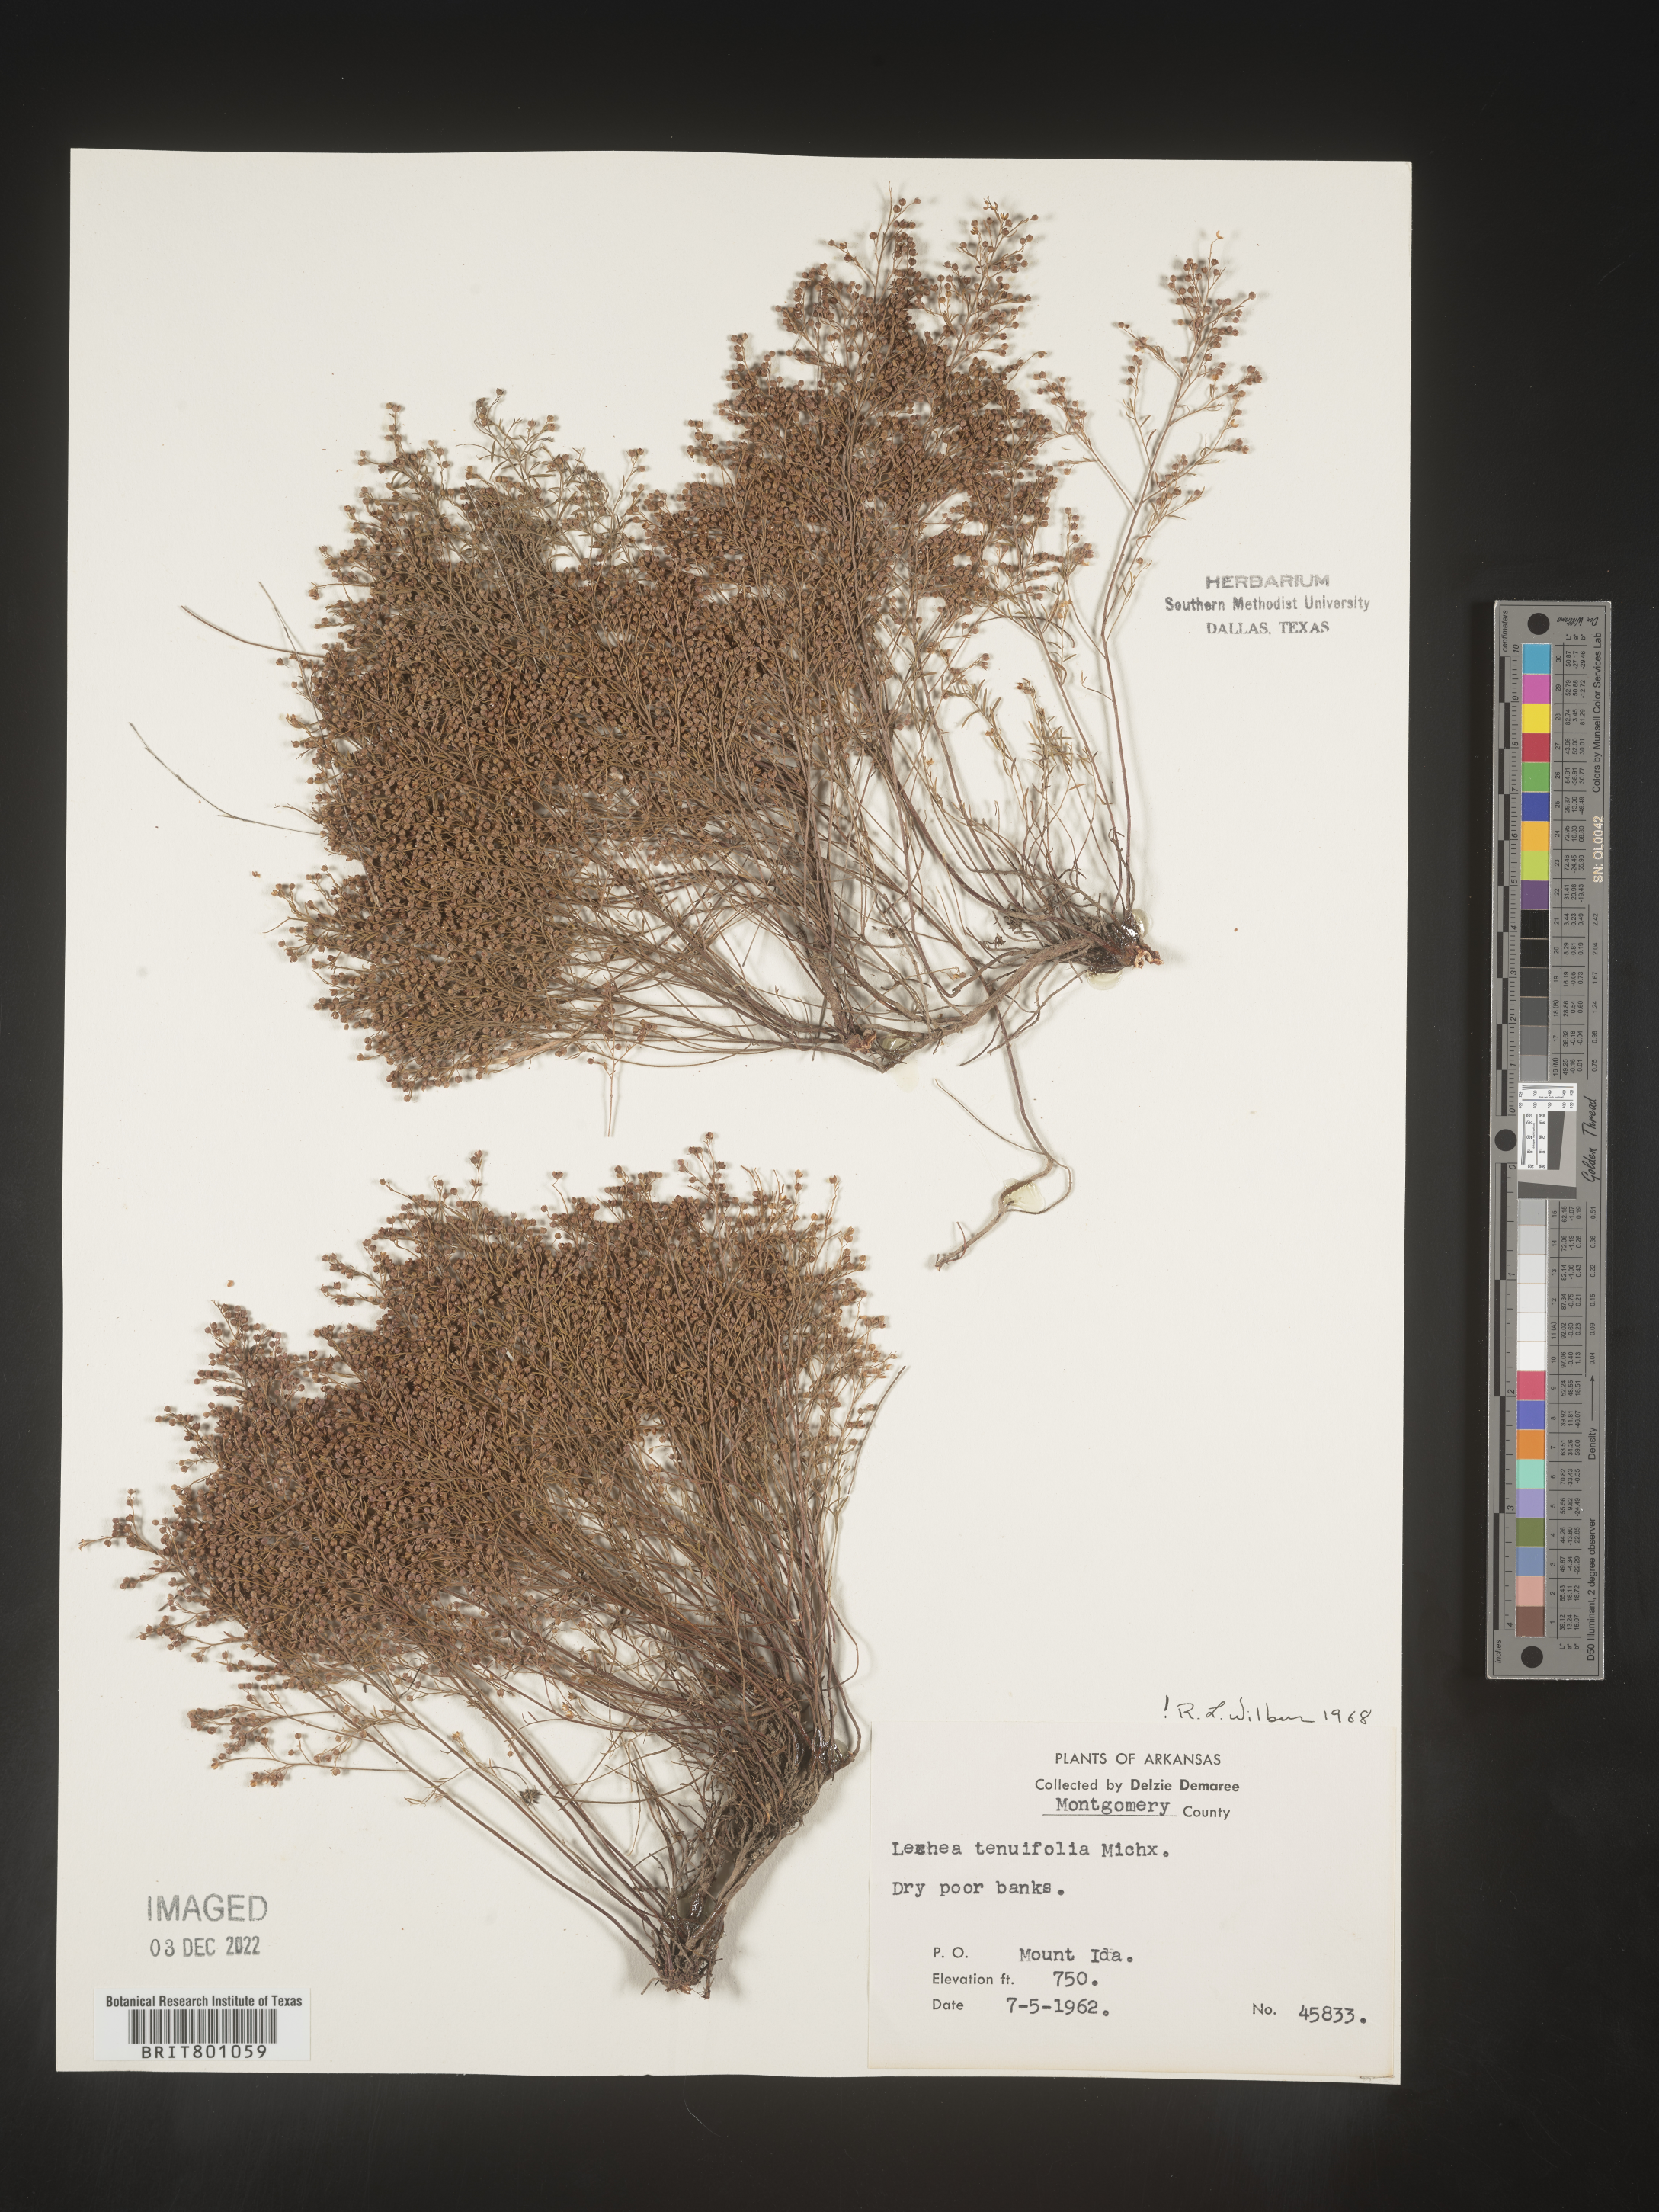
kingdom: Plantae
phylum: Tracheophyta
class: Magnoliopsida
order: Malvales
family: Cistaceae
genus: Lechea
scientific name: Lechea tenuifolia
